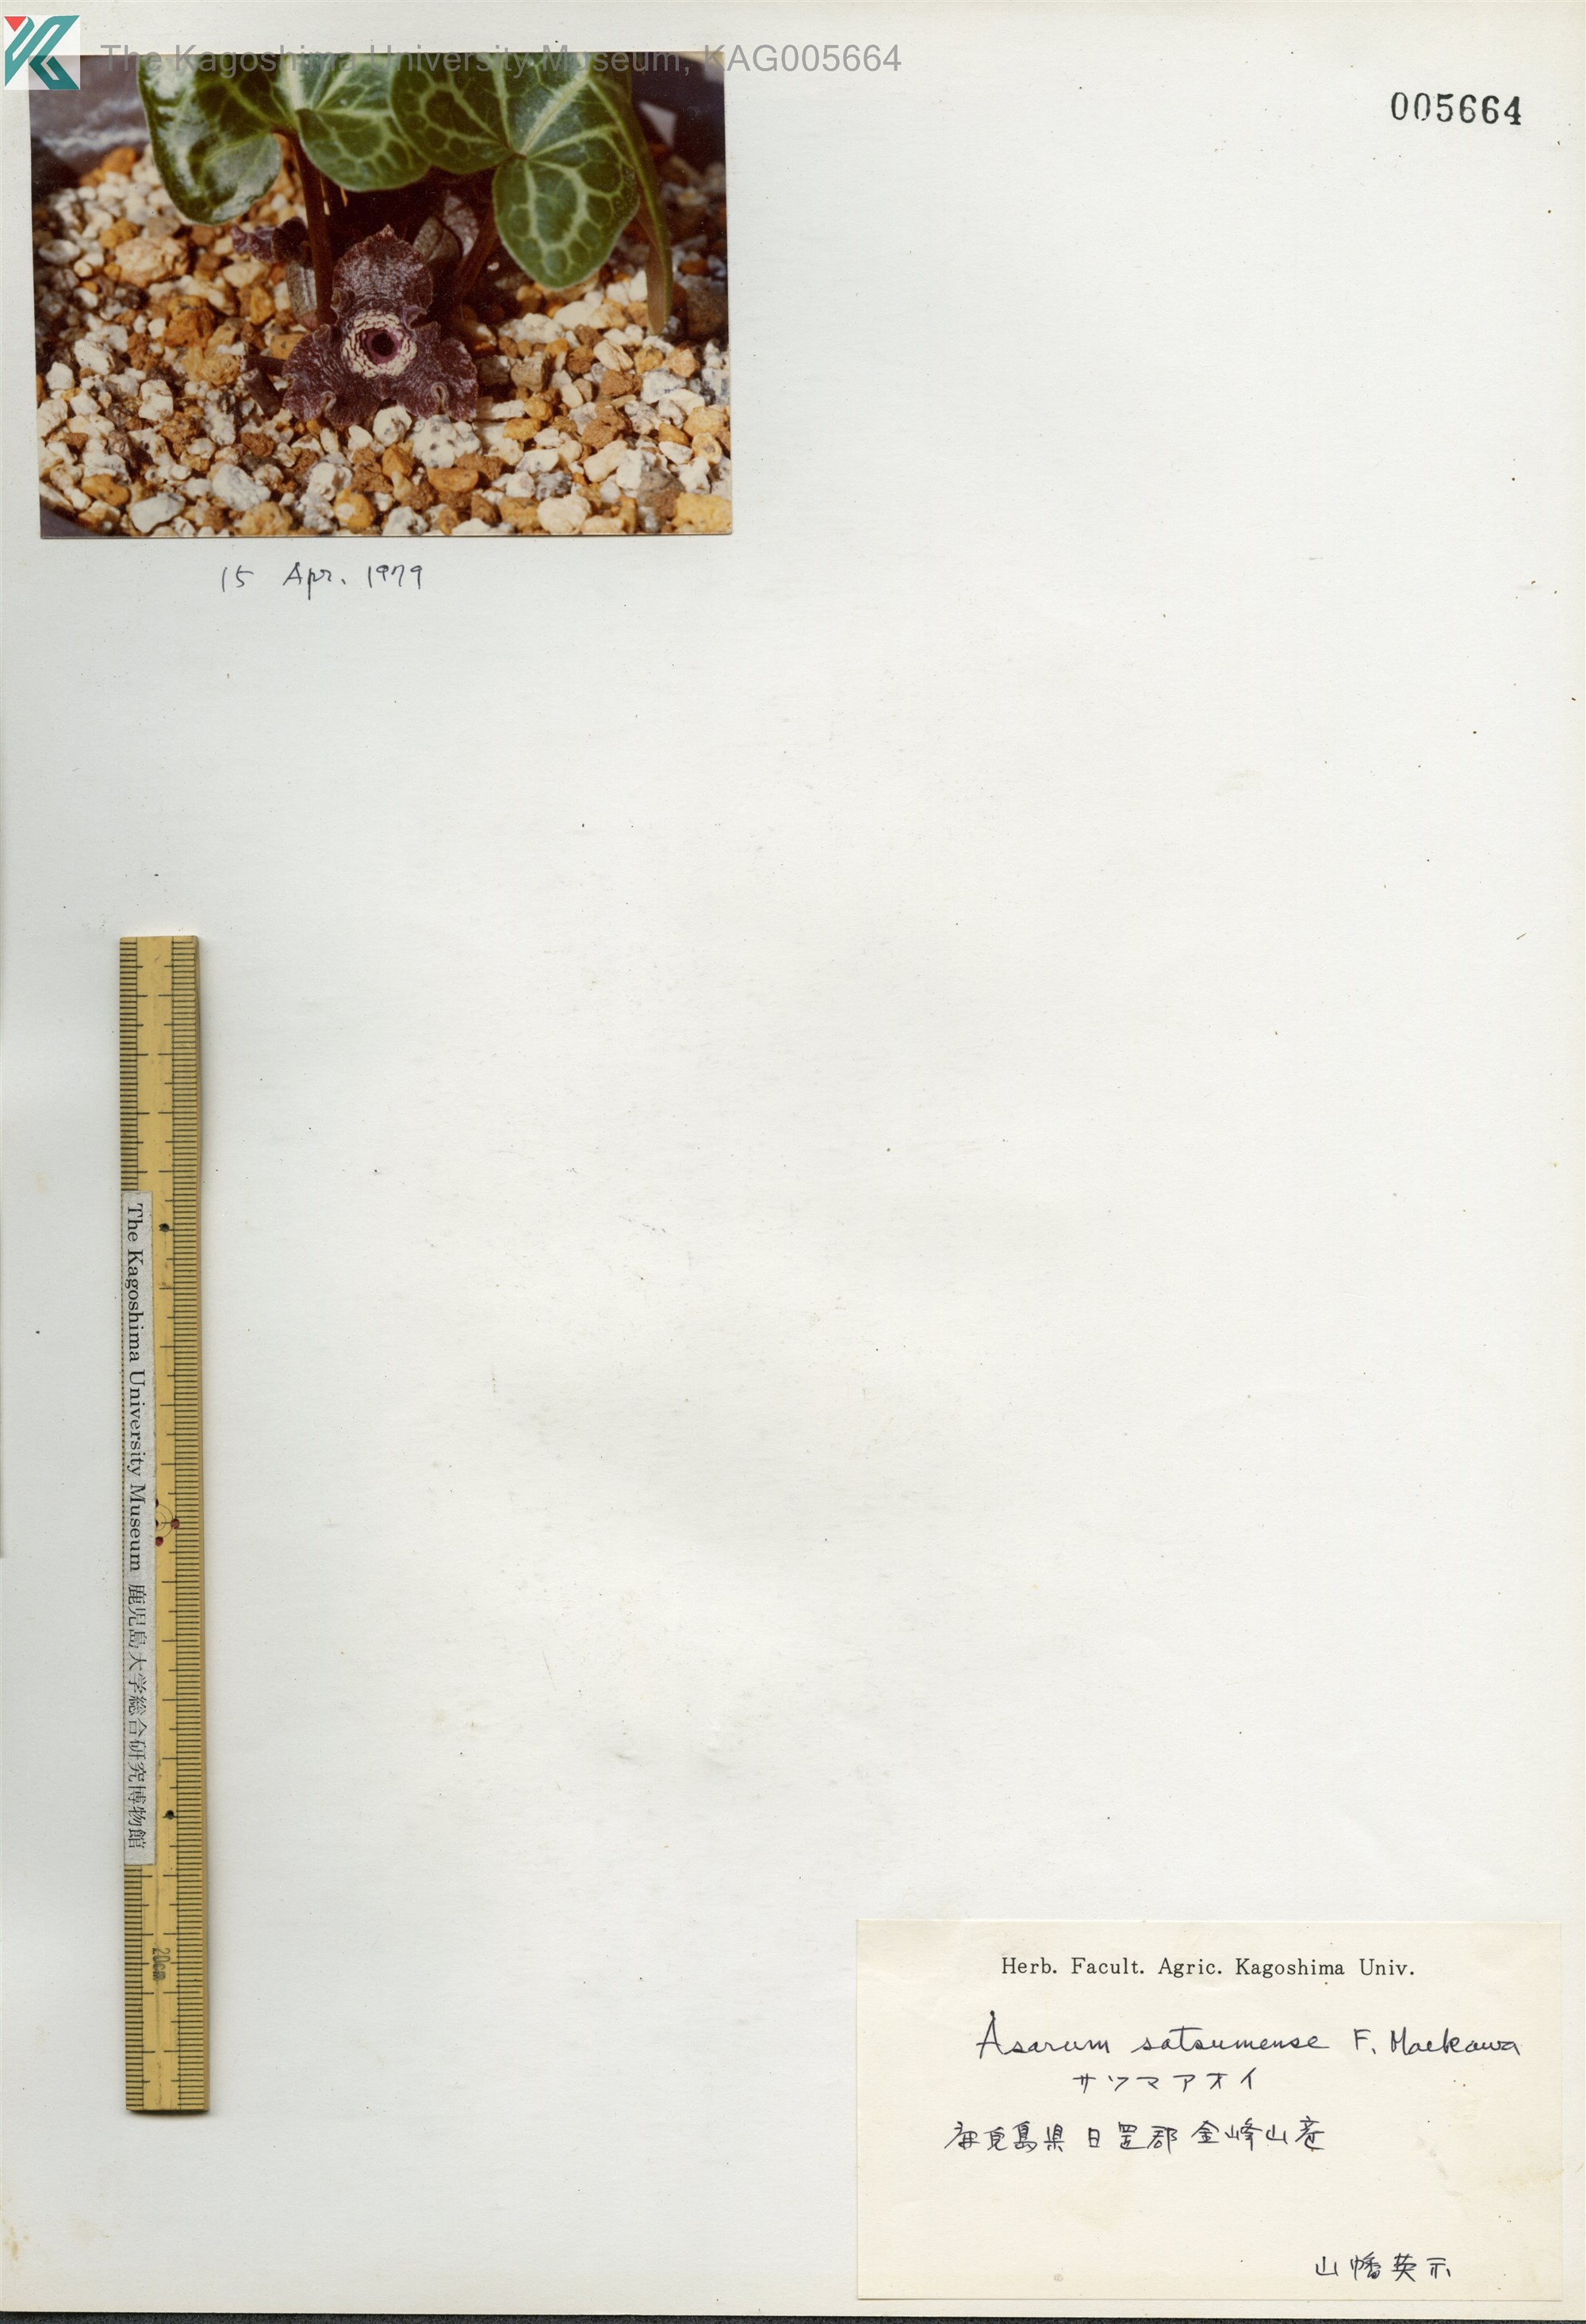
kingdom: Plantae
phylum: Tracheophyta
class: Magnoliopsida
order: Piperales
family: Aristolochiaceae
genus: Asarum
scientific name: Asarum satsumense
